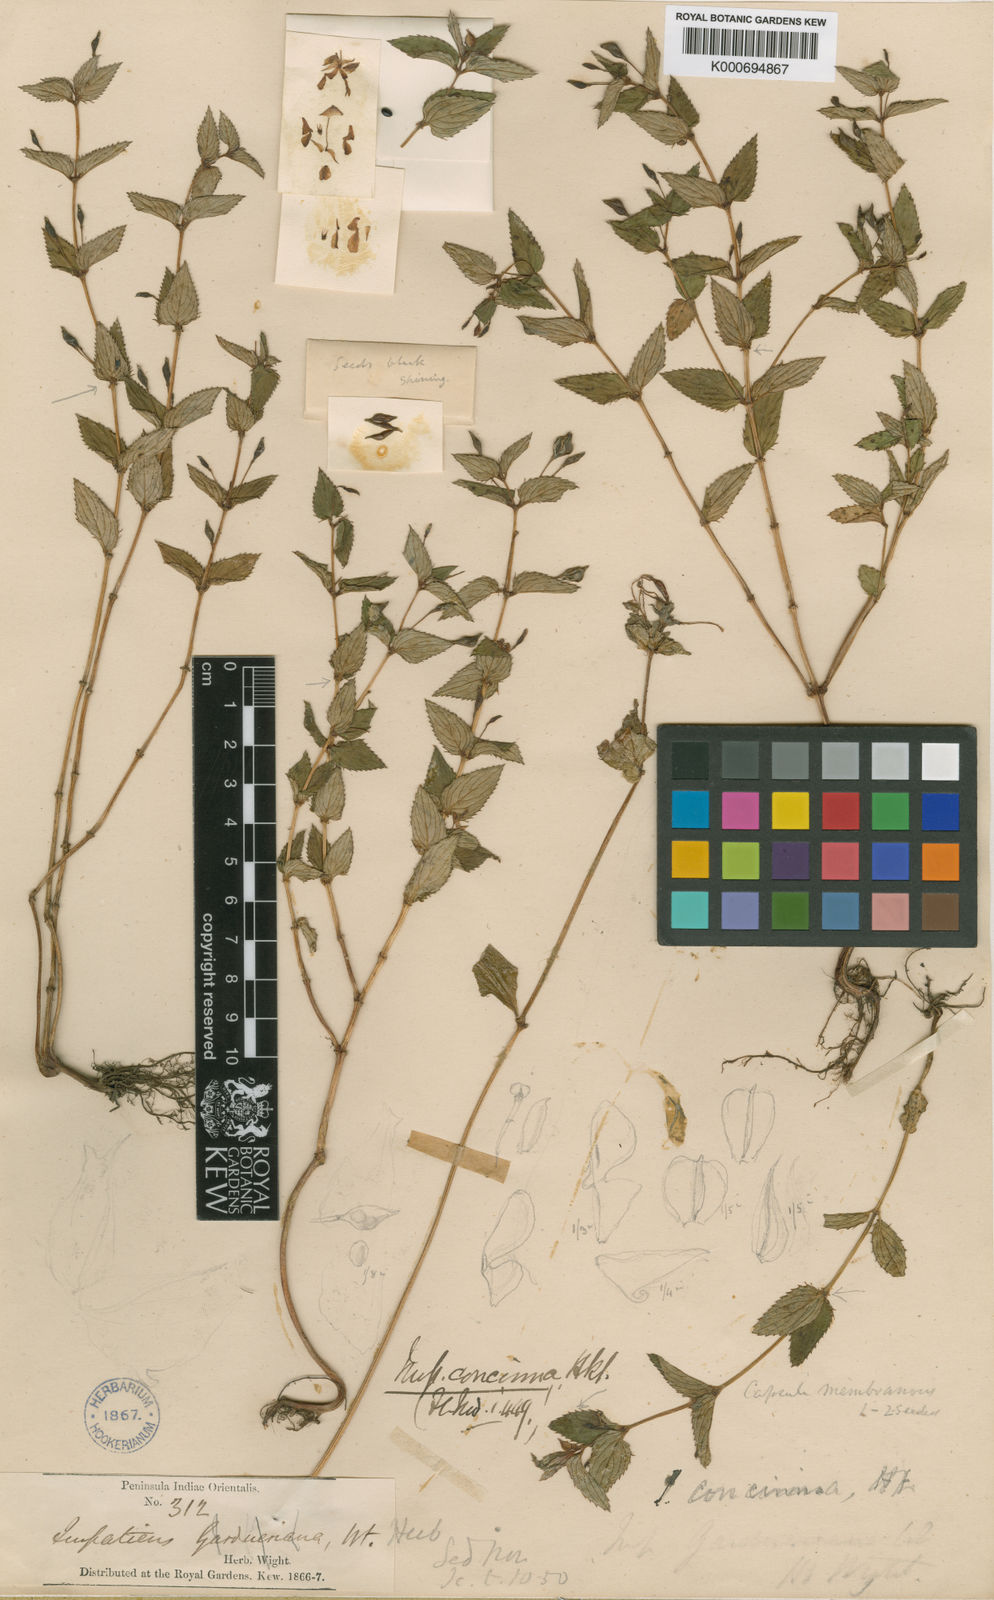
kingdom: Plantae
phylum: Tracheophyta
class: Magnoliopsida
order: Ericales
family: Balsaminaceae
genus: Impatiens
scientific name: Impatiens concinna
